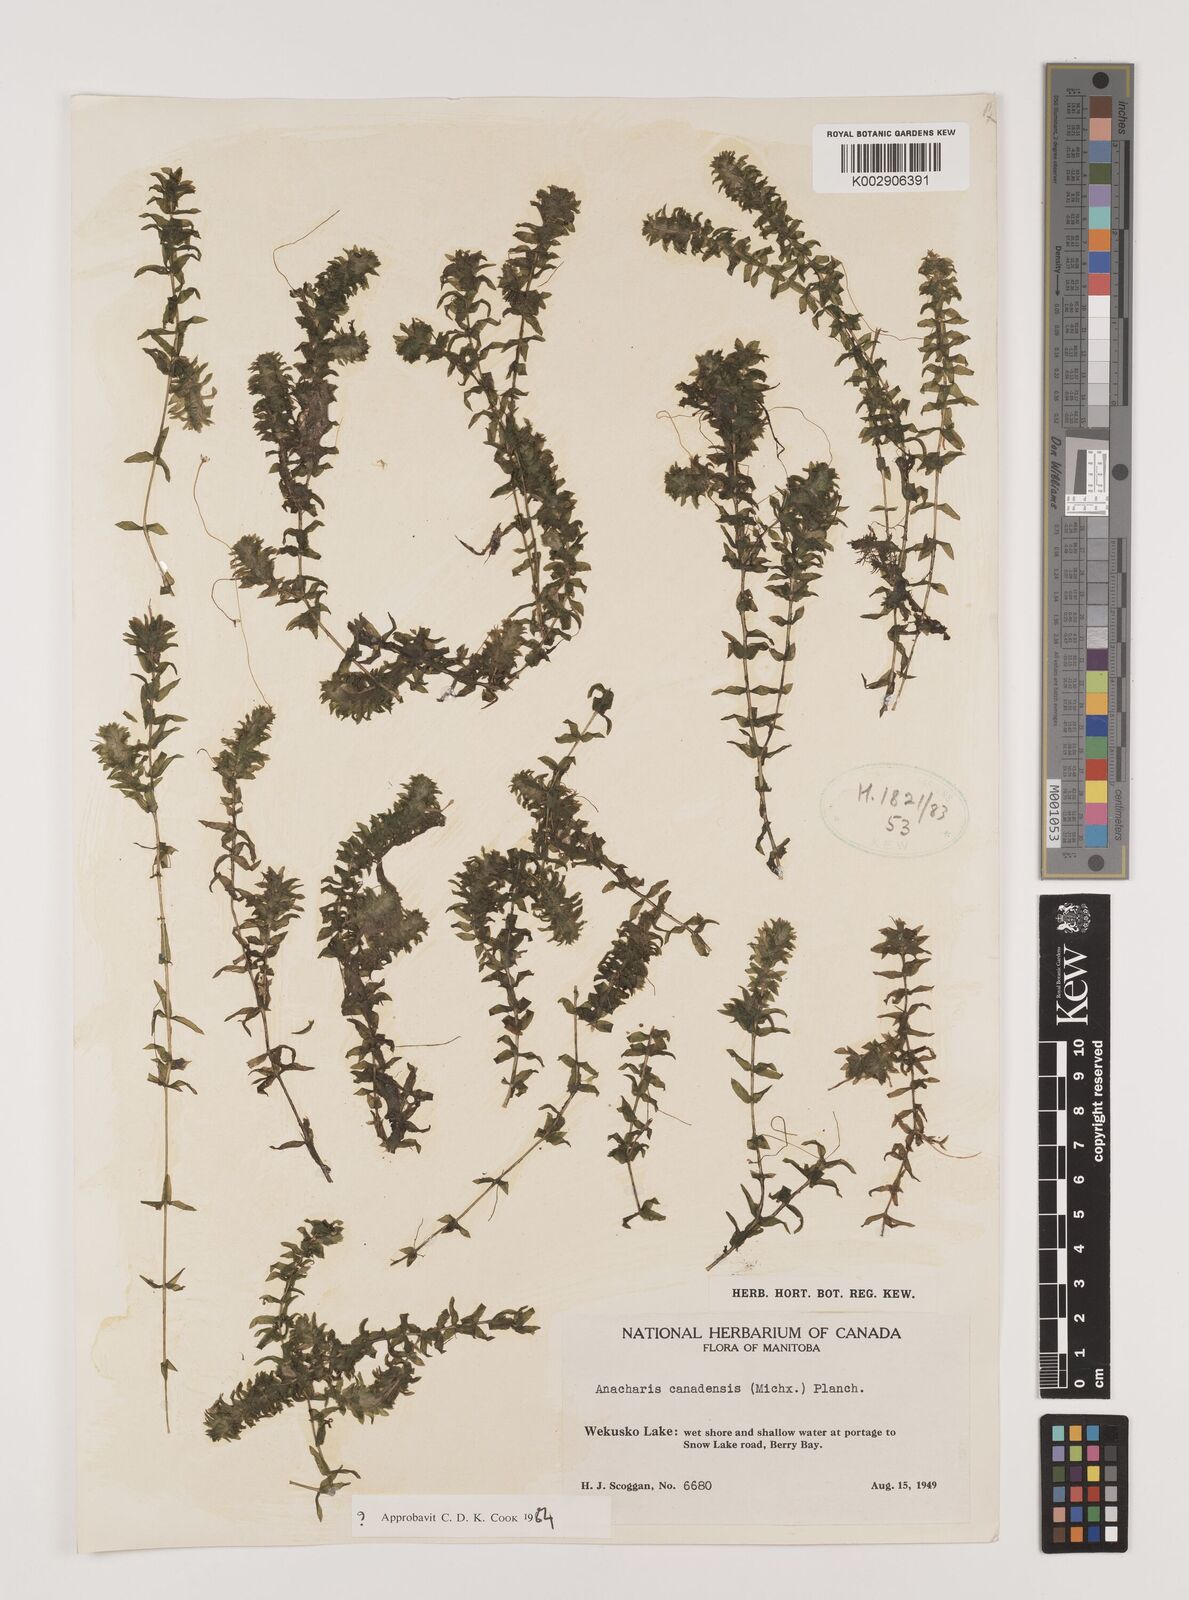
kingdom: Plantae
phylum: Tracheophyta
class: Liliopsida
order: Alismatales
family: Hydrocharitaceae
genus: Elodea
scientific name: Elodea canadensis
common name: Canadian waterweed
